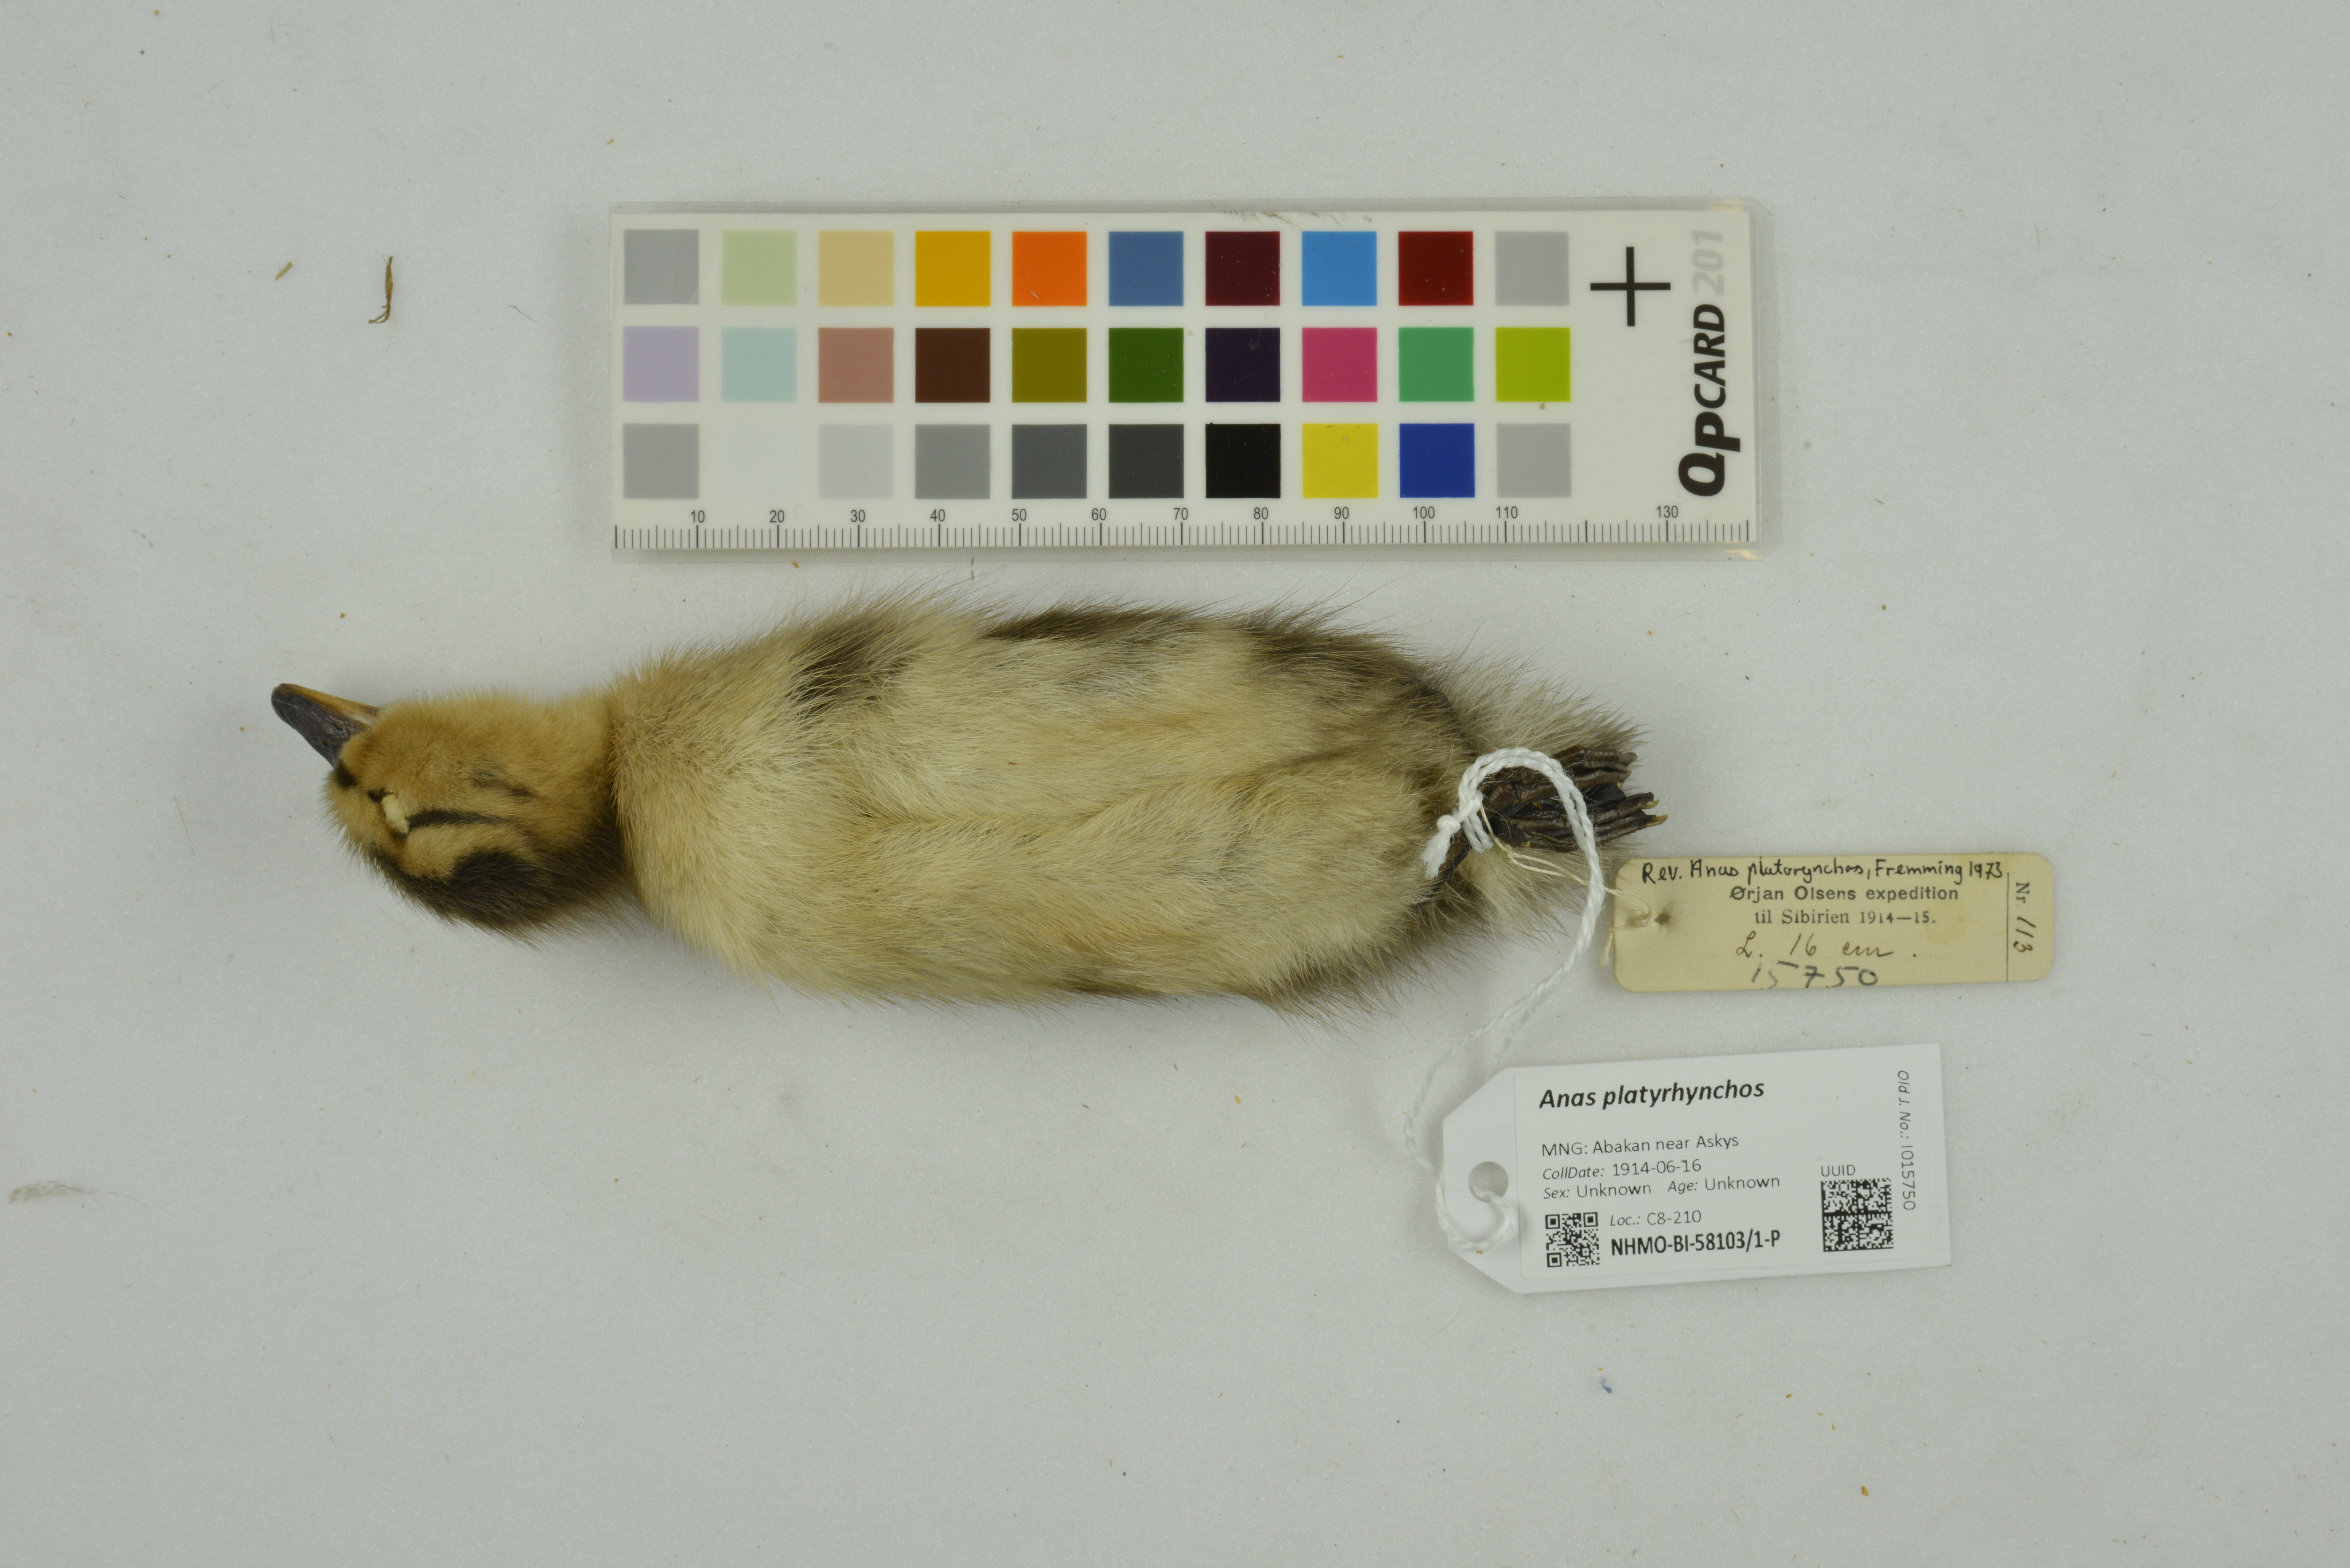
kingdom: Animalia
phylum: Chordata
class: Aves
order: Anseriformes
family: Anatidae
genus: Anas
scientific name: Anas platyrhynchos
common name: Mallard
